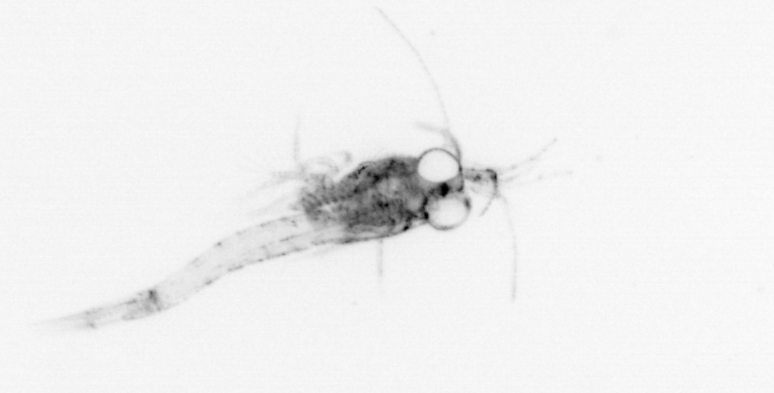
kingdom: Animalia
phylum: Arthropoda
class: Malacostraca
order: Decapoda
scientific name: Decapoda
